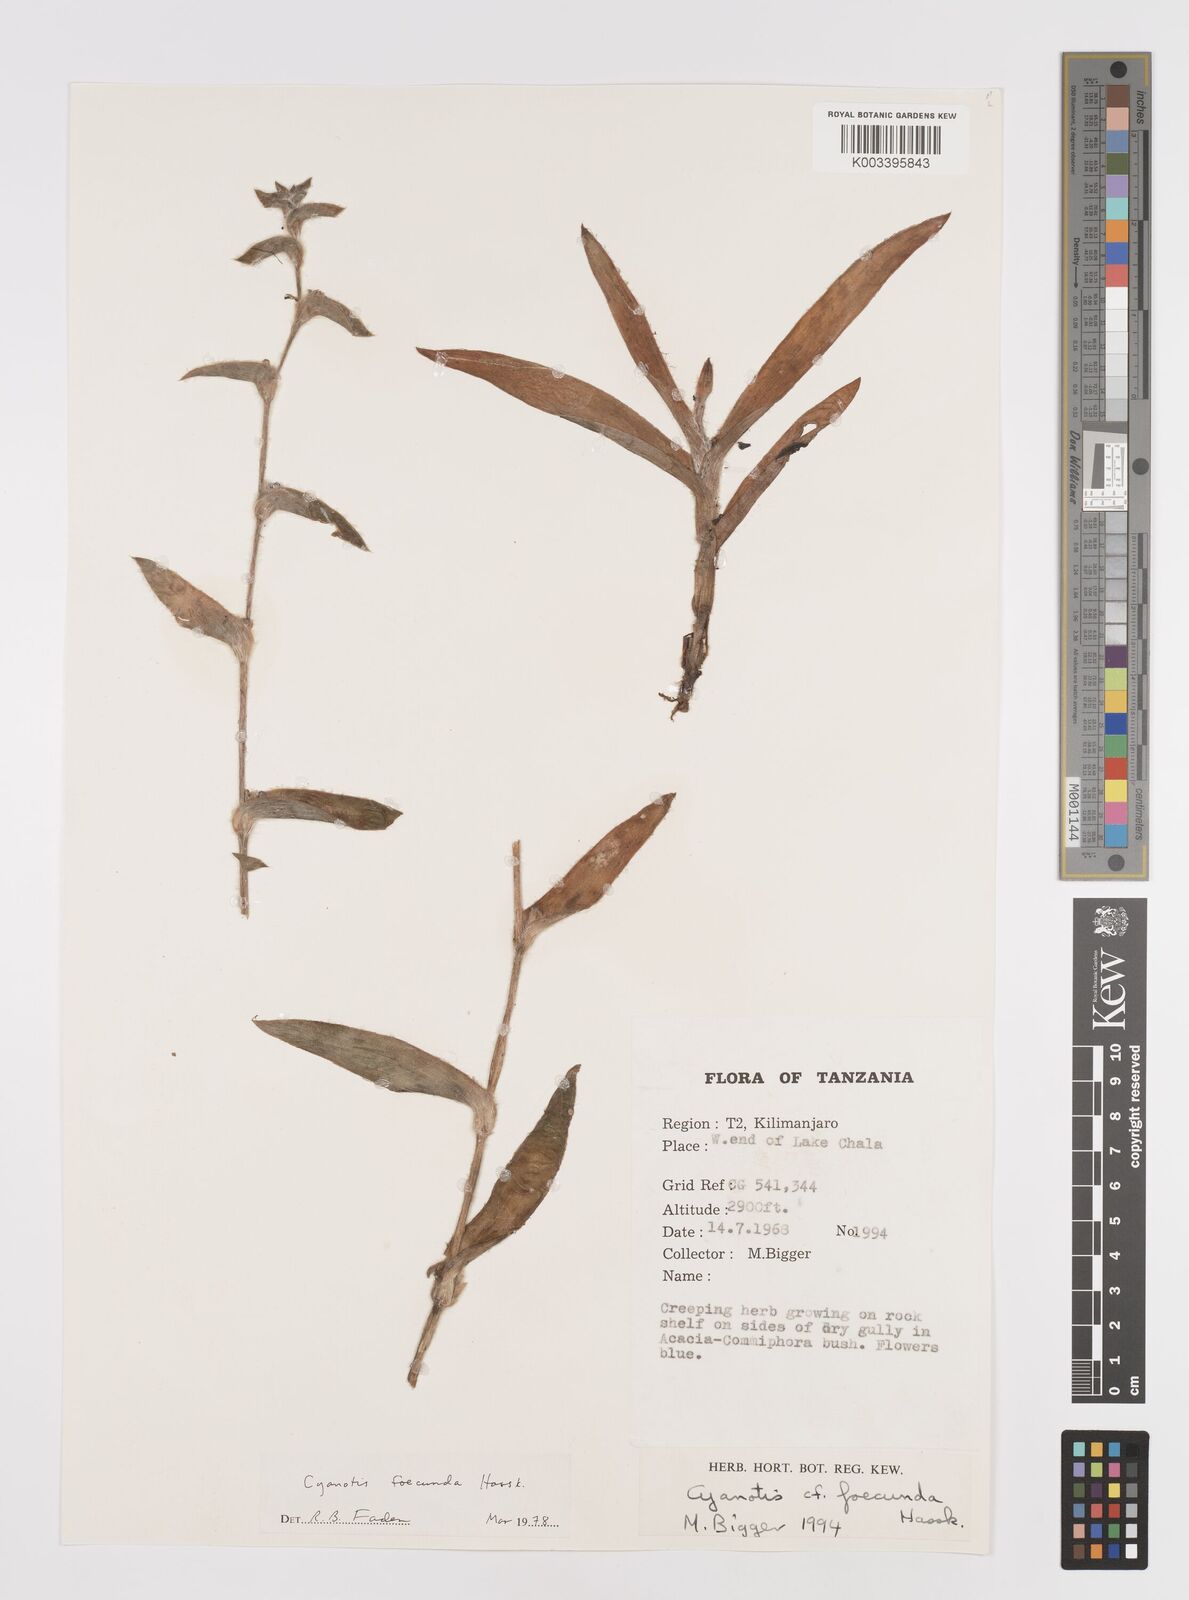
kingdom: Plantae
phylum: Tracheophyta
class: Liliopsida
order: Commelinales
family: Commelinaceae
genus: Cyanotis
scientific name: Cyanotis foecunda
